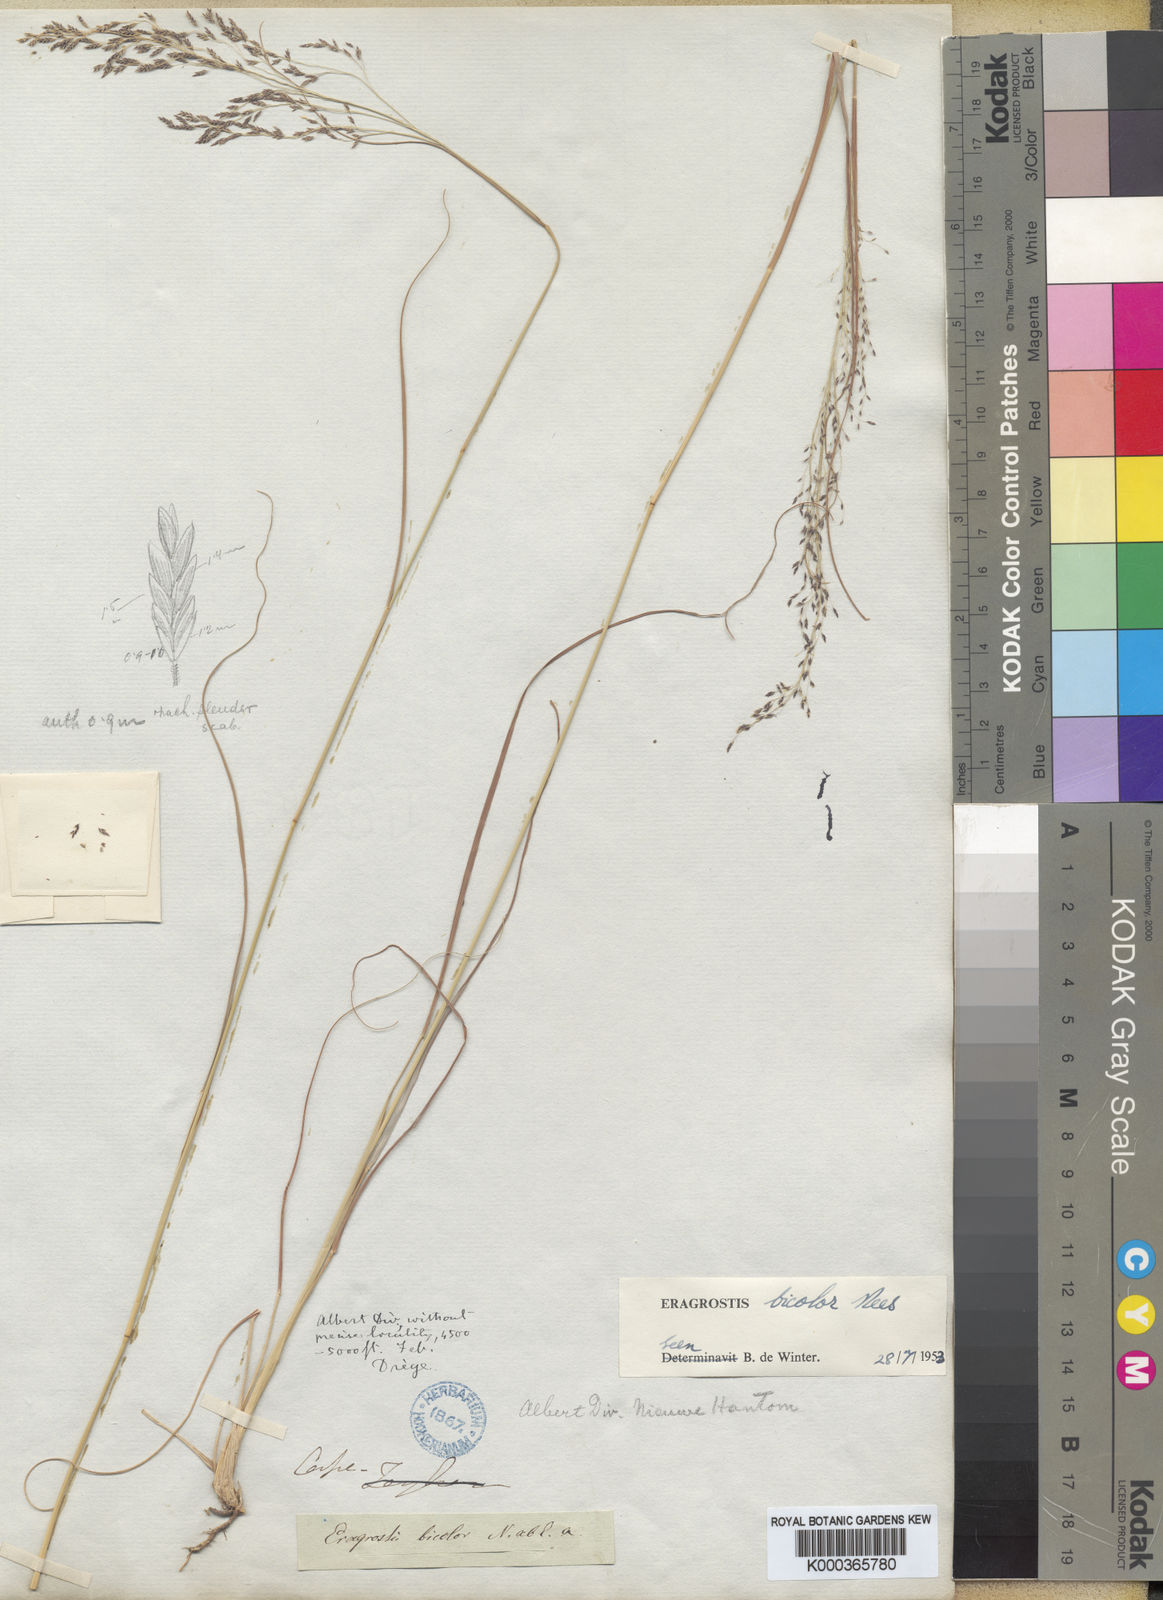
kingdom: Plantae
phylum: Tracheophyta
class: Liliopsida
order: Poales
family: Poaceae
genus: Eragrostis
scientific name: Eragrostis bicolor
